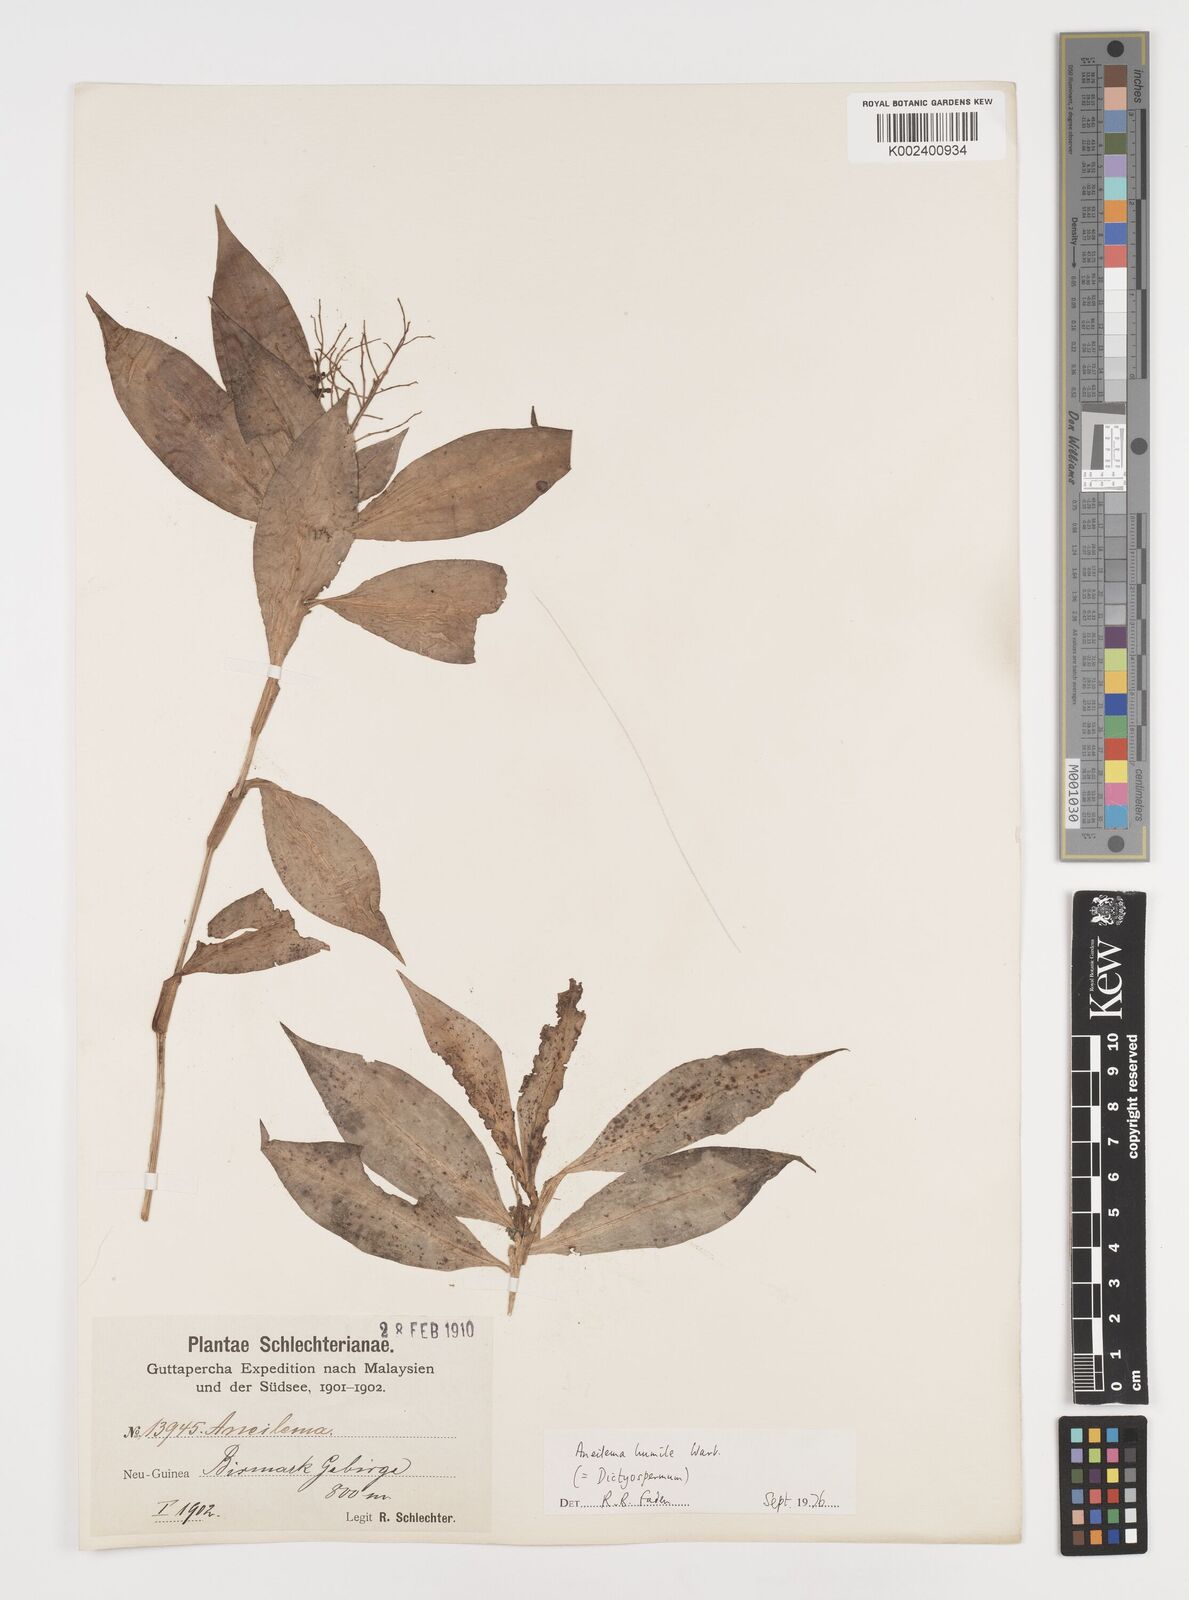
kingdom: Plantae
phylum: Tracheophyta
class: Liliopsida
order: Commelinales
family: Commelinaceae
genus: Dictyospermum
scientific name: Dictyospermum humile
